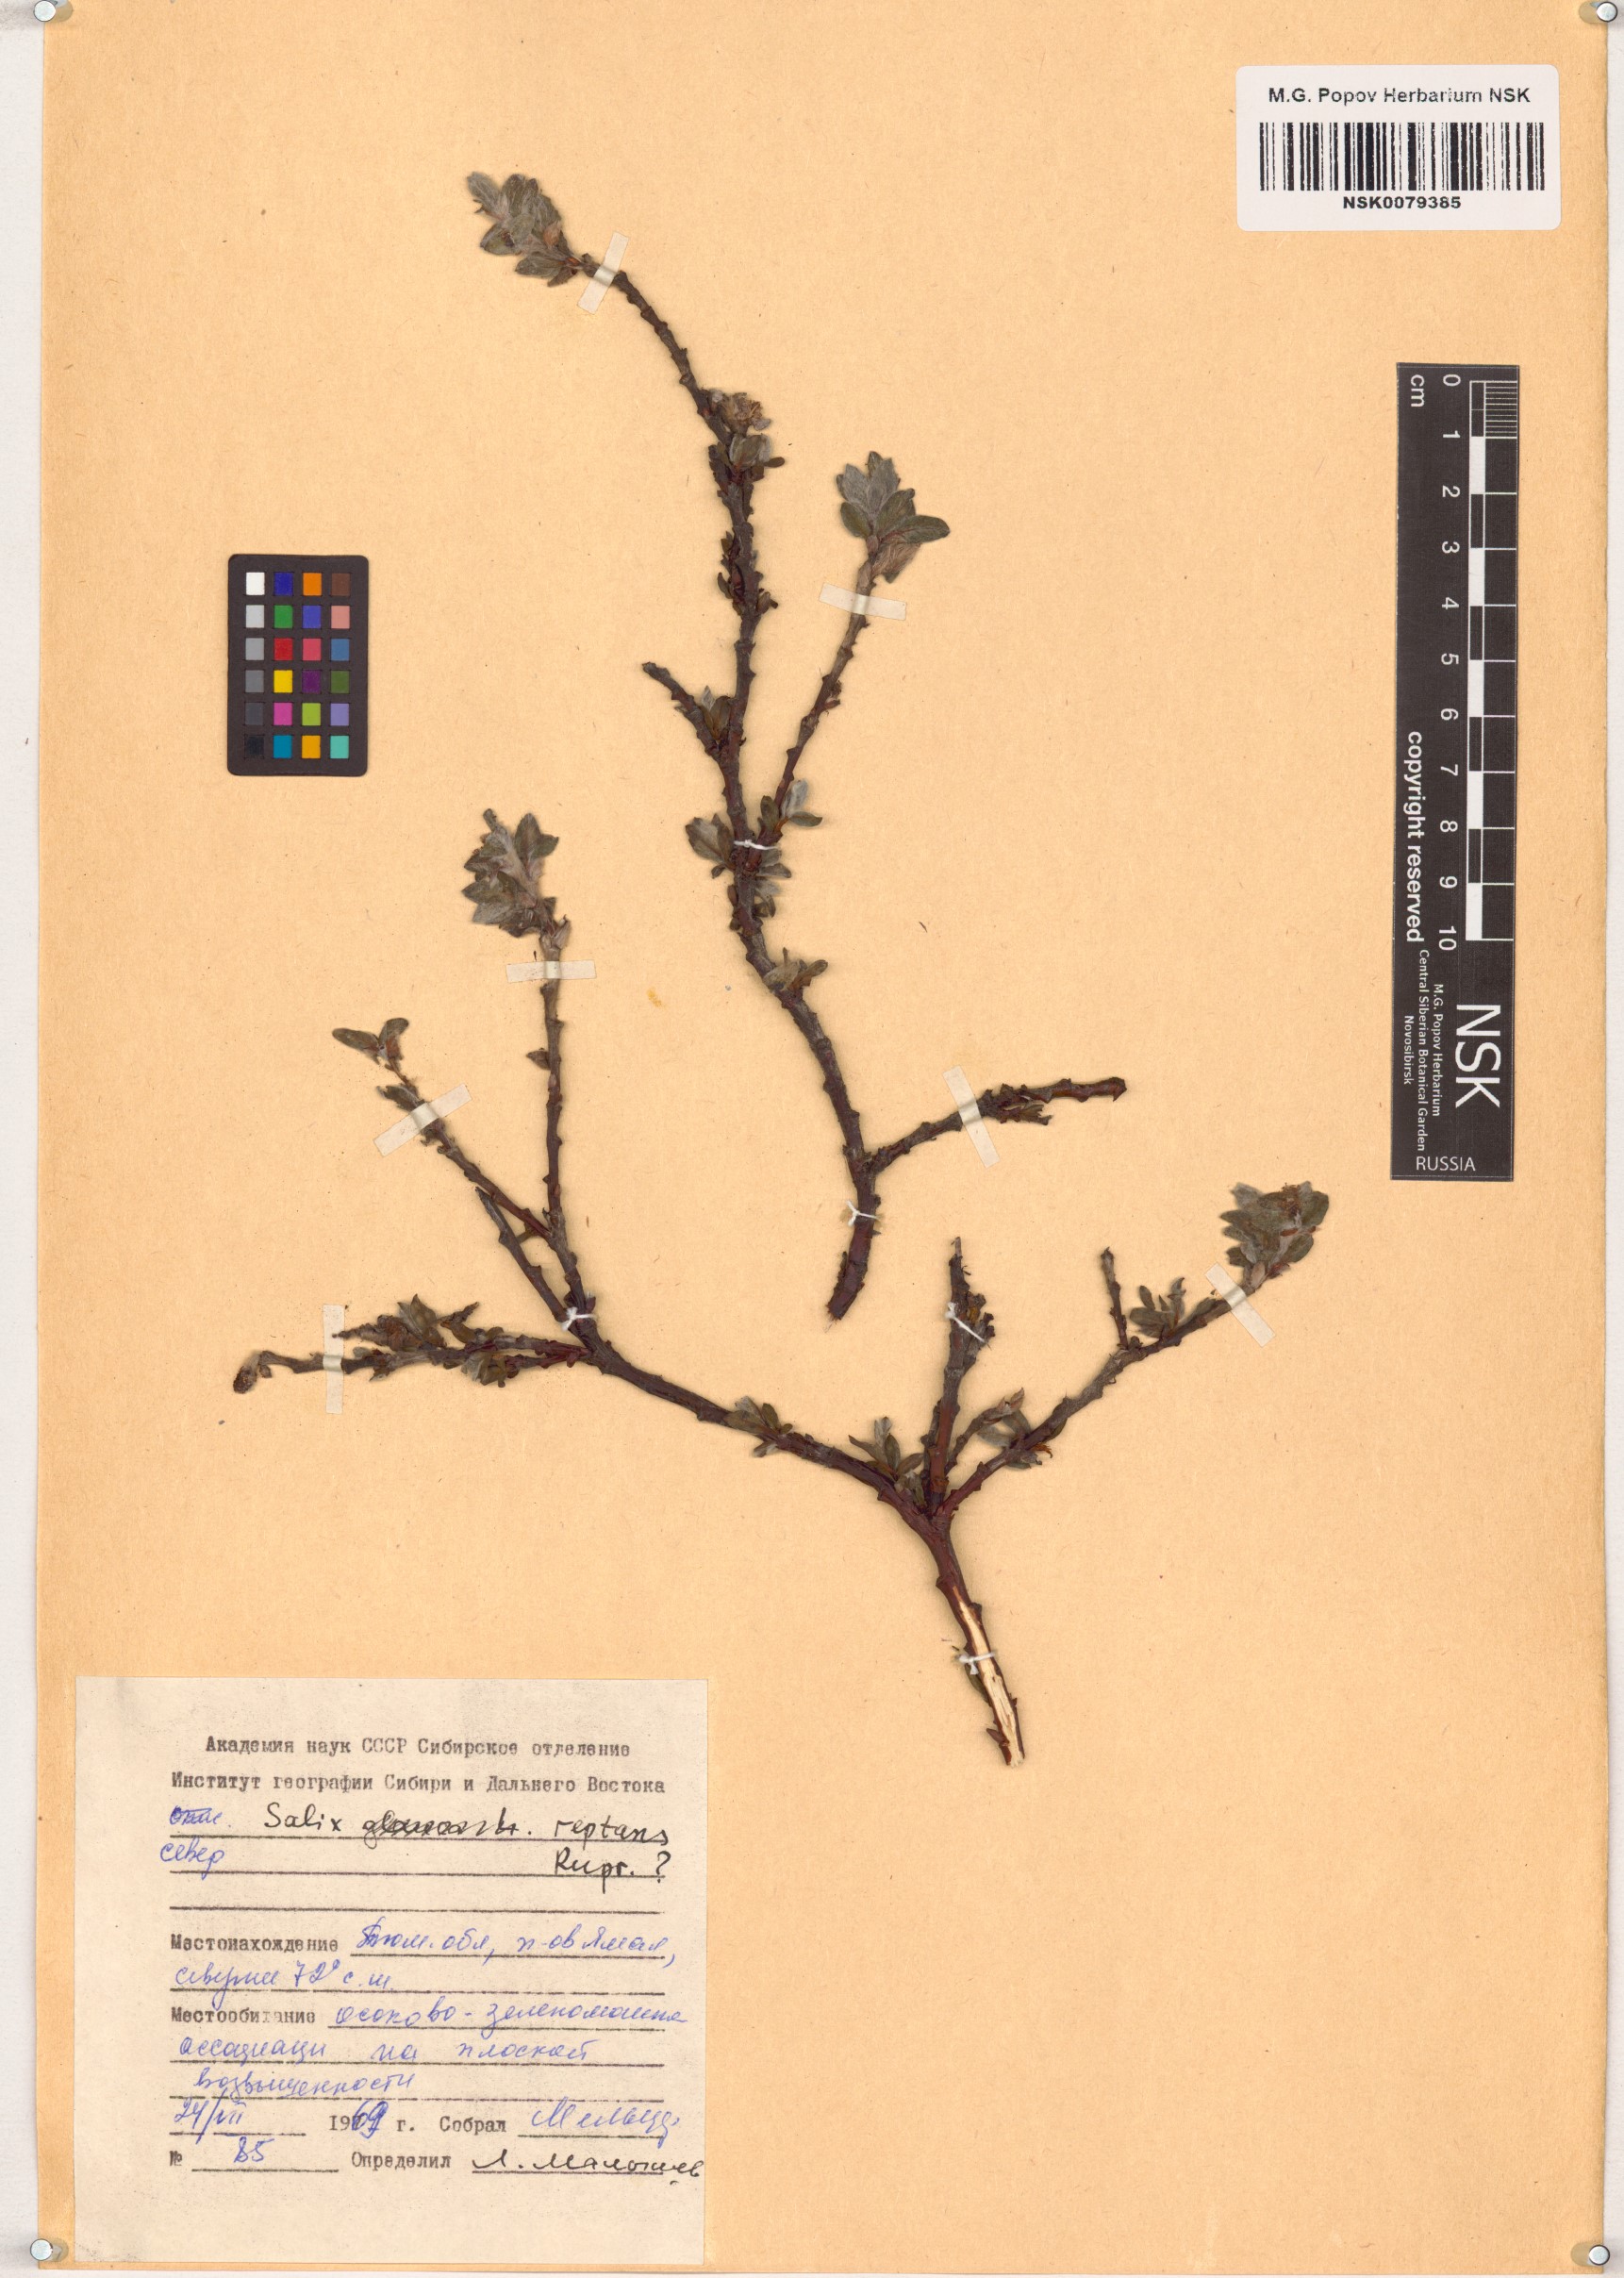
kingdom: Plantae
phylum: Tracheophyta
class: Magnoliopsida
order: Malpighiales
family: Salicaceae
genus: Salix
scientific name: Salix reptans
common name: Arctic creeping willow
